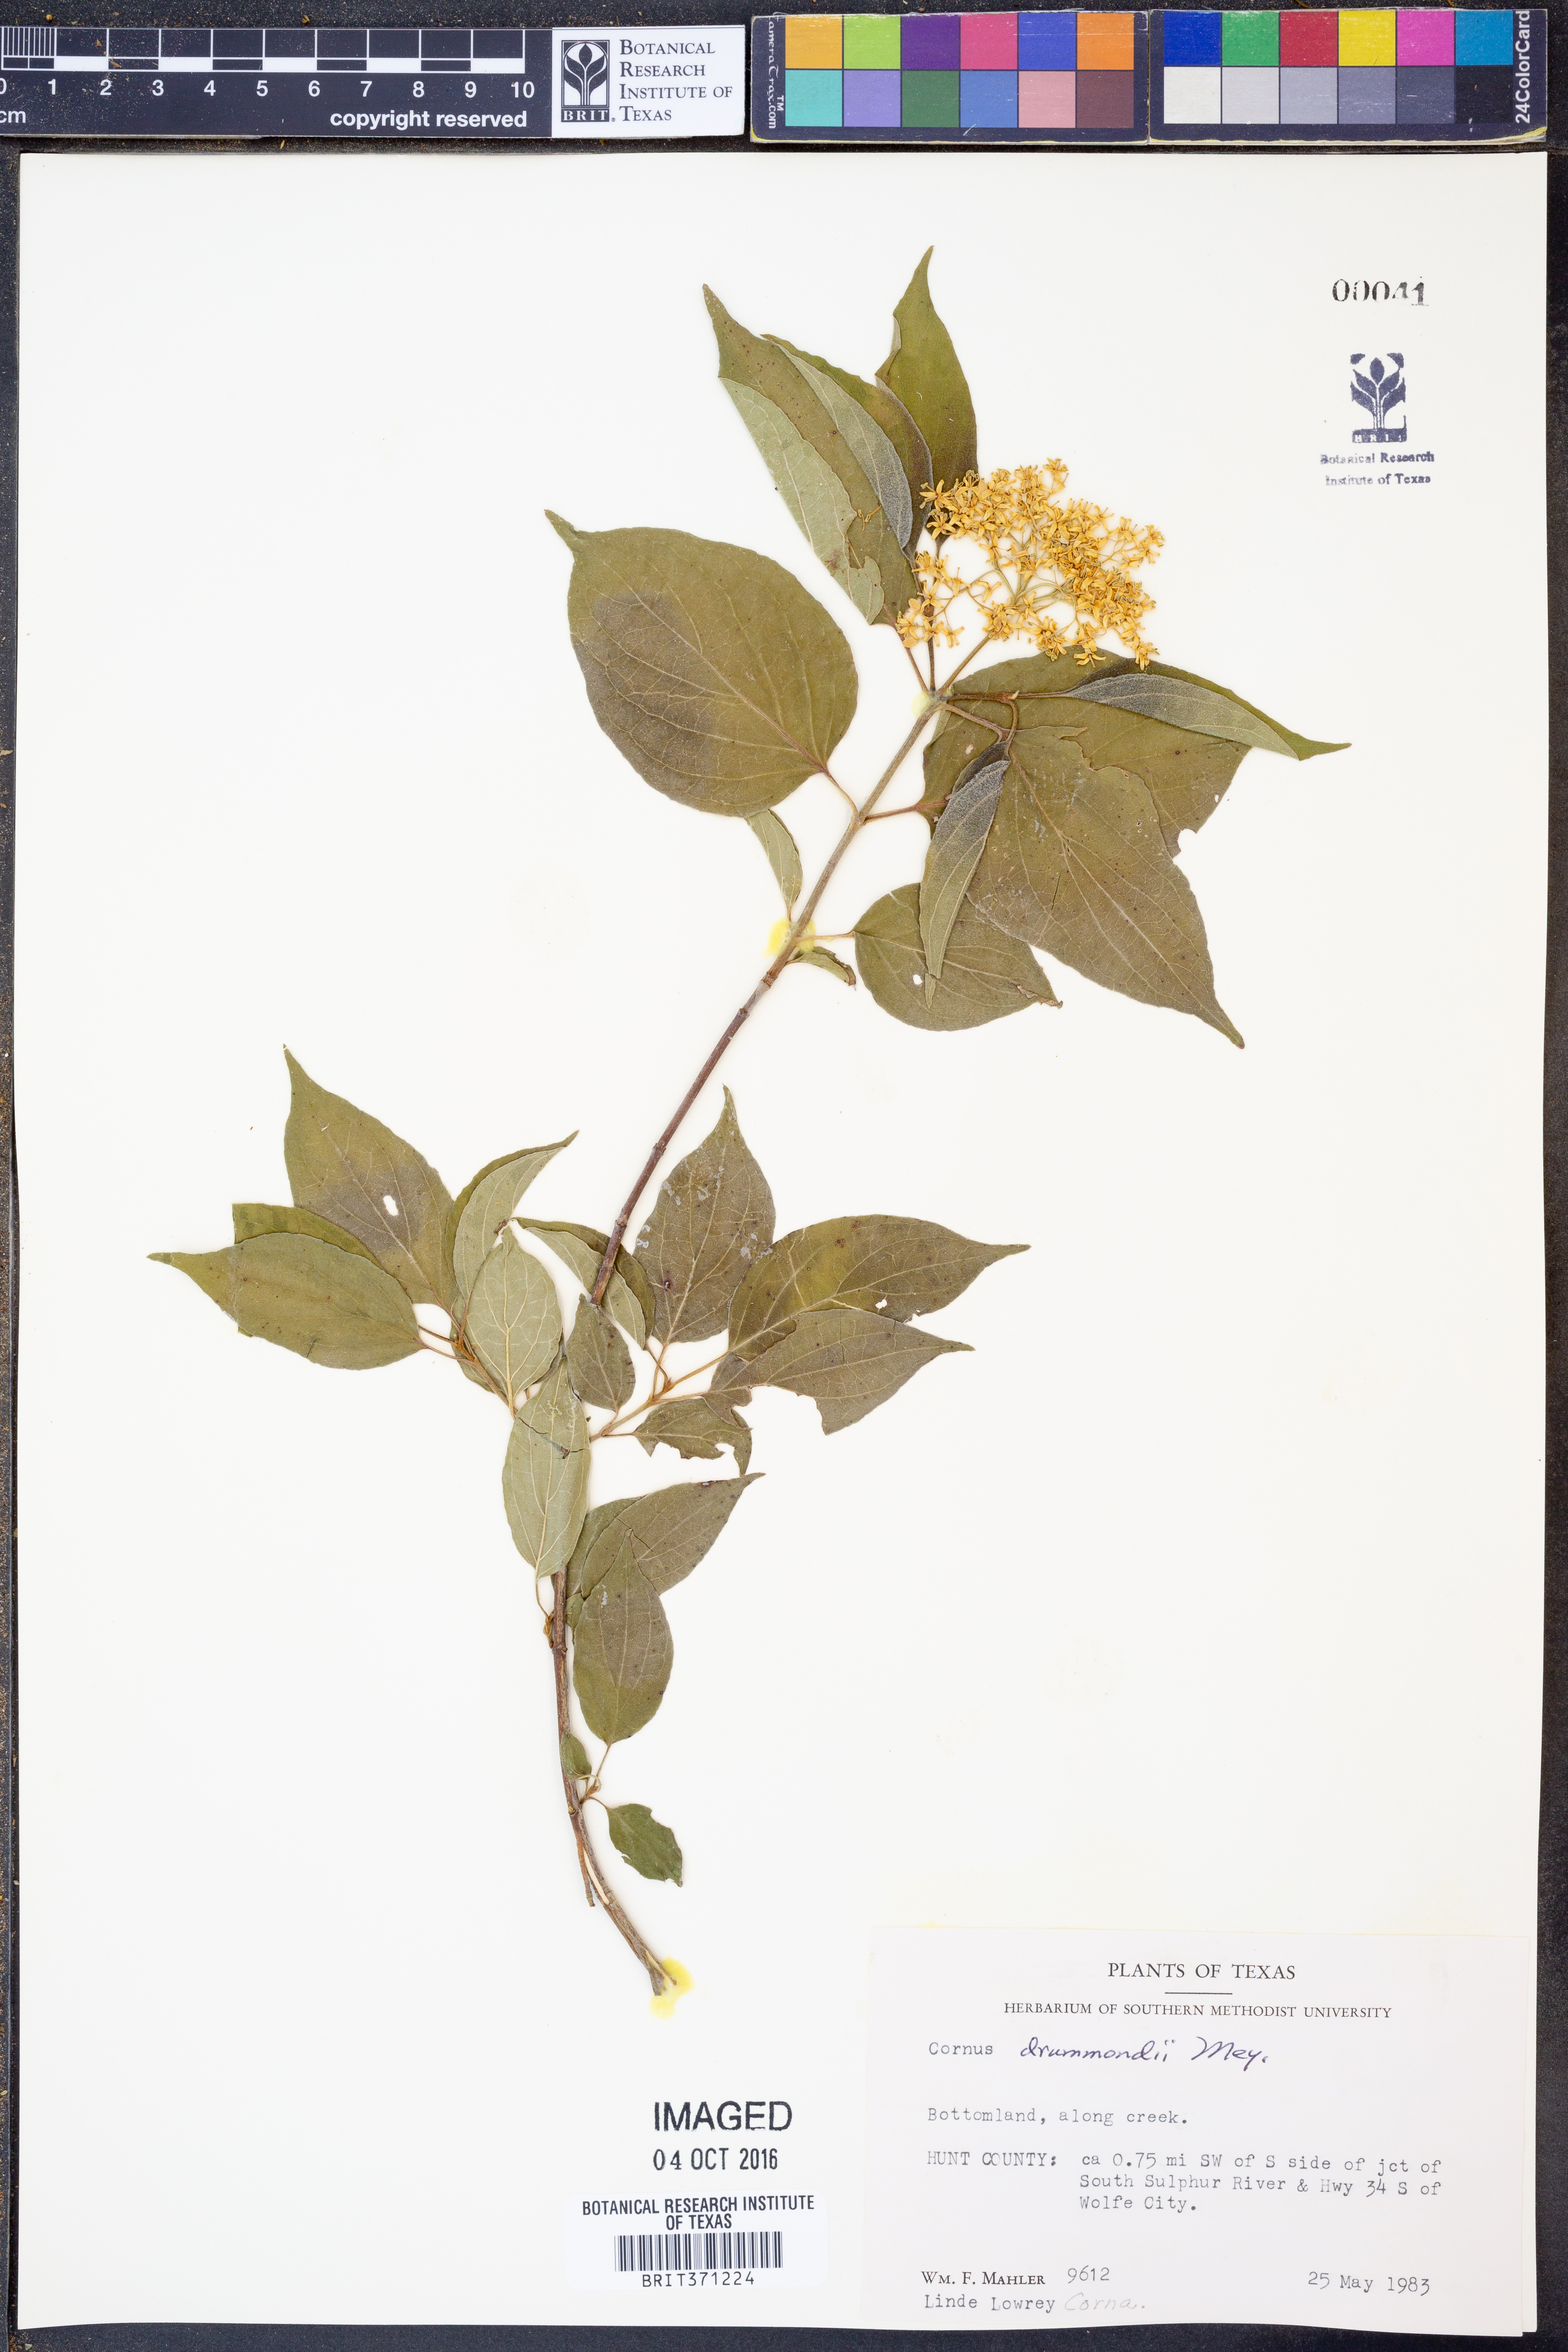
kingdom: Plantae
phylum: Tracheophyta
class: Magnoliopsida
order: Cornales
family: Cornaceae
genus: Cornus
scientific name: Cornus drummondii
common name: Rough-leaf dogwood
